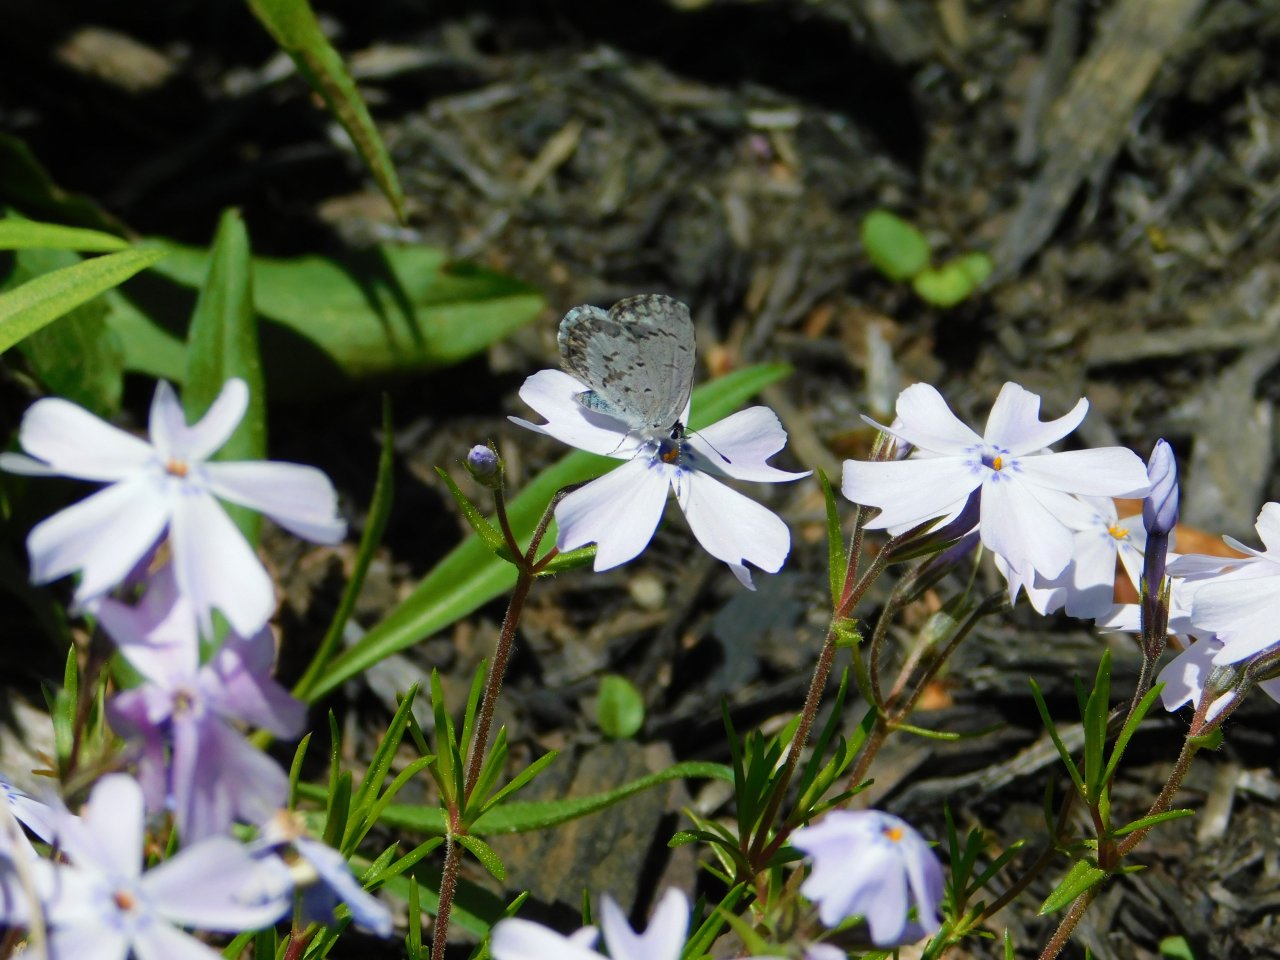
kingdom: Animalia
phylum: Arthropoda
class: Insecta
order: Lepidoptera
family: Lycaenidae
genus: Celastrina
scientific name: Celastrina lucia
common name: Northern Spring Azure
